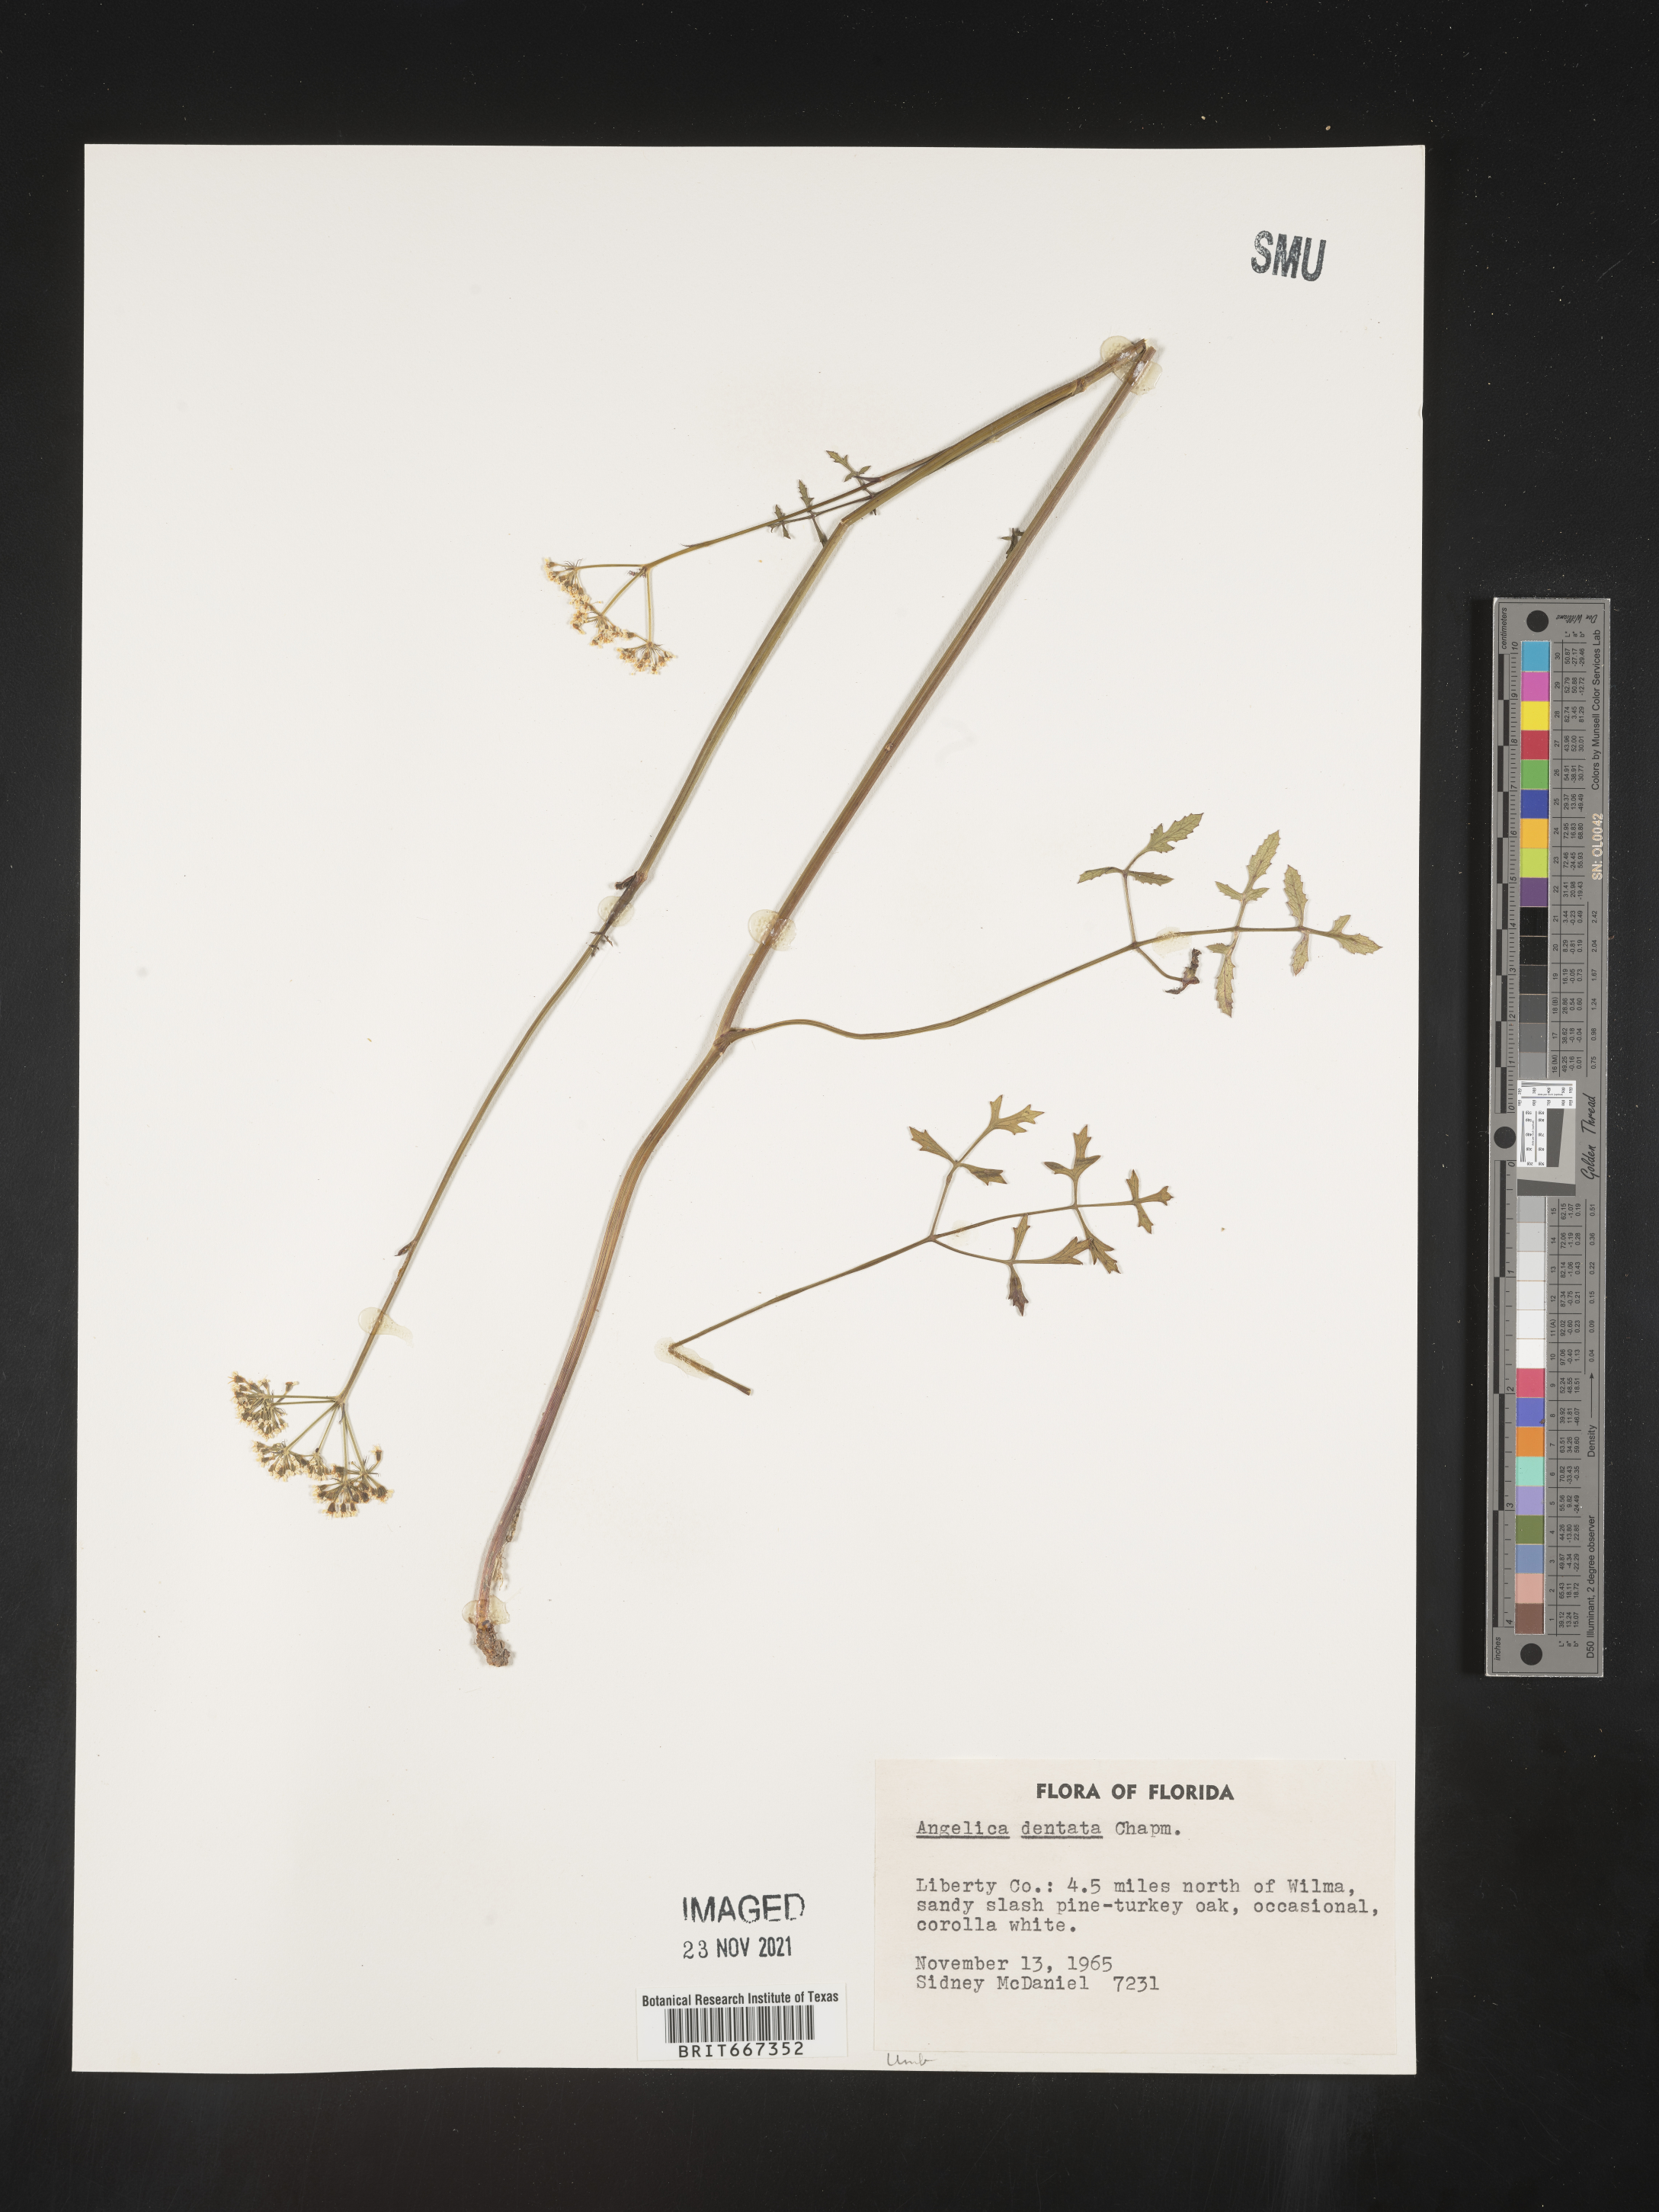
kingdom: Plantae
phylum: Tracheophyta
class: Magnoliopsida
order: Apiales
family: Apiaceae
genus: Angelica
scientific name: Angelica
